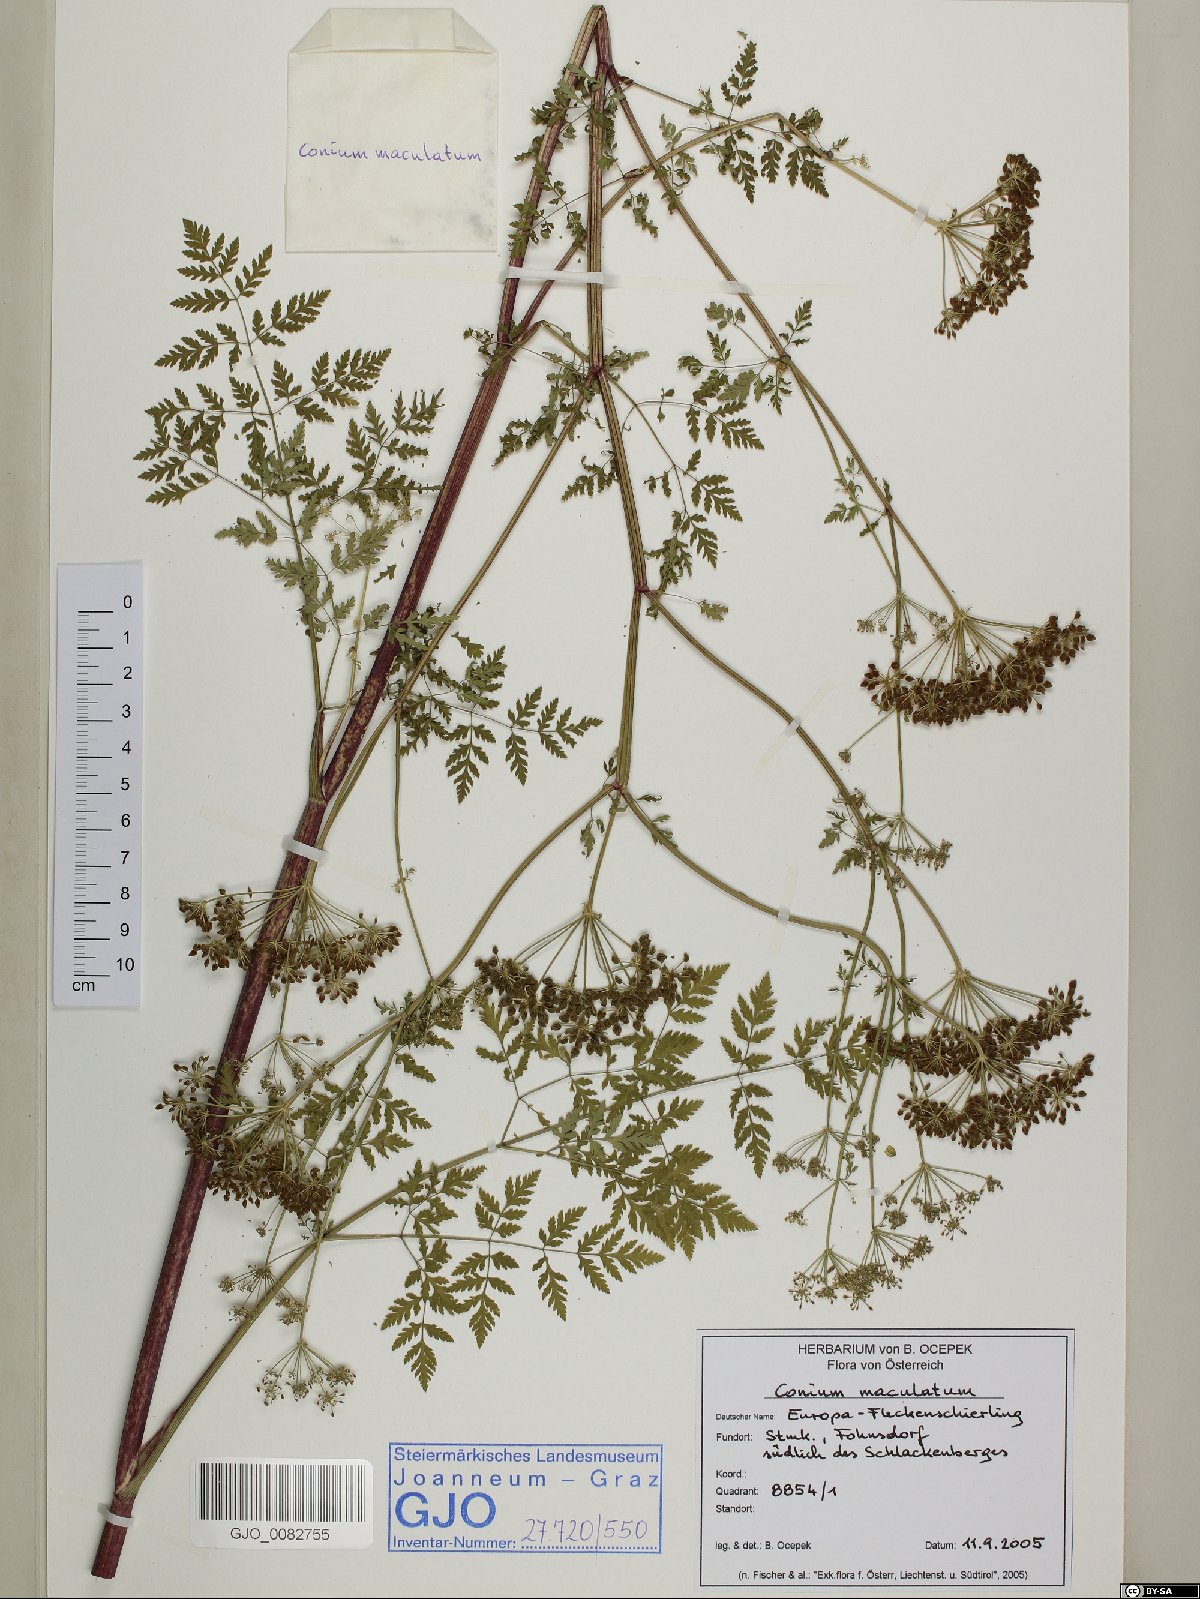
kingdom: Plantae
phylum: Tracheophyta
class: Magnoliopsida
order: Apiales
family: Apiaceae
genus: Conium
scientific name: Conium maculatum
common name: Hemlock
